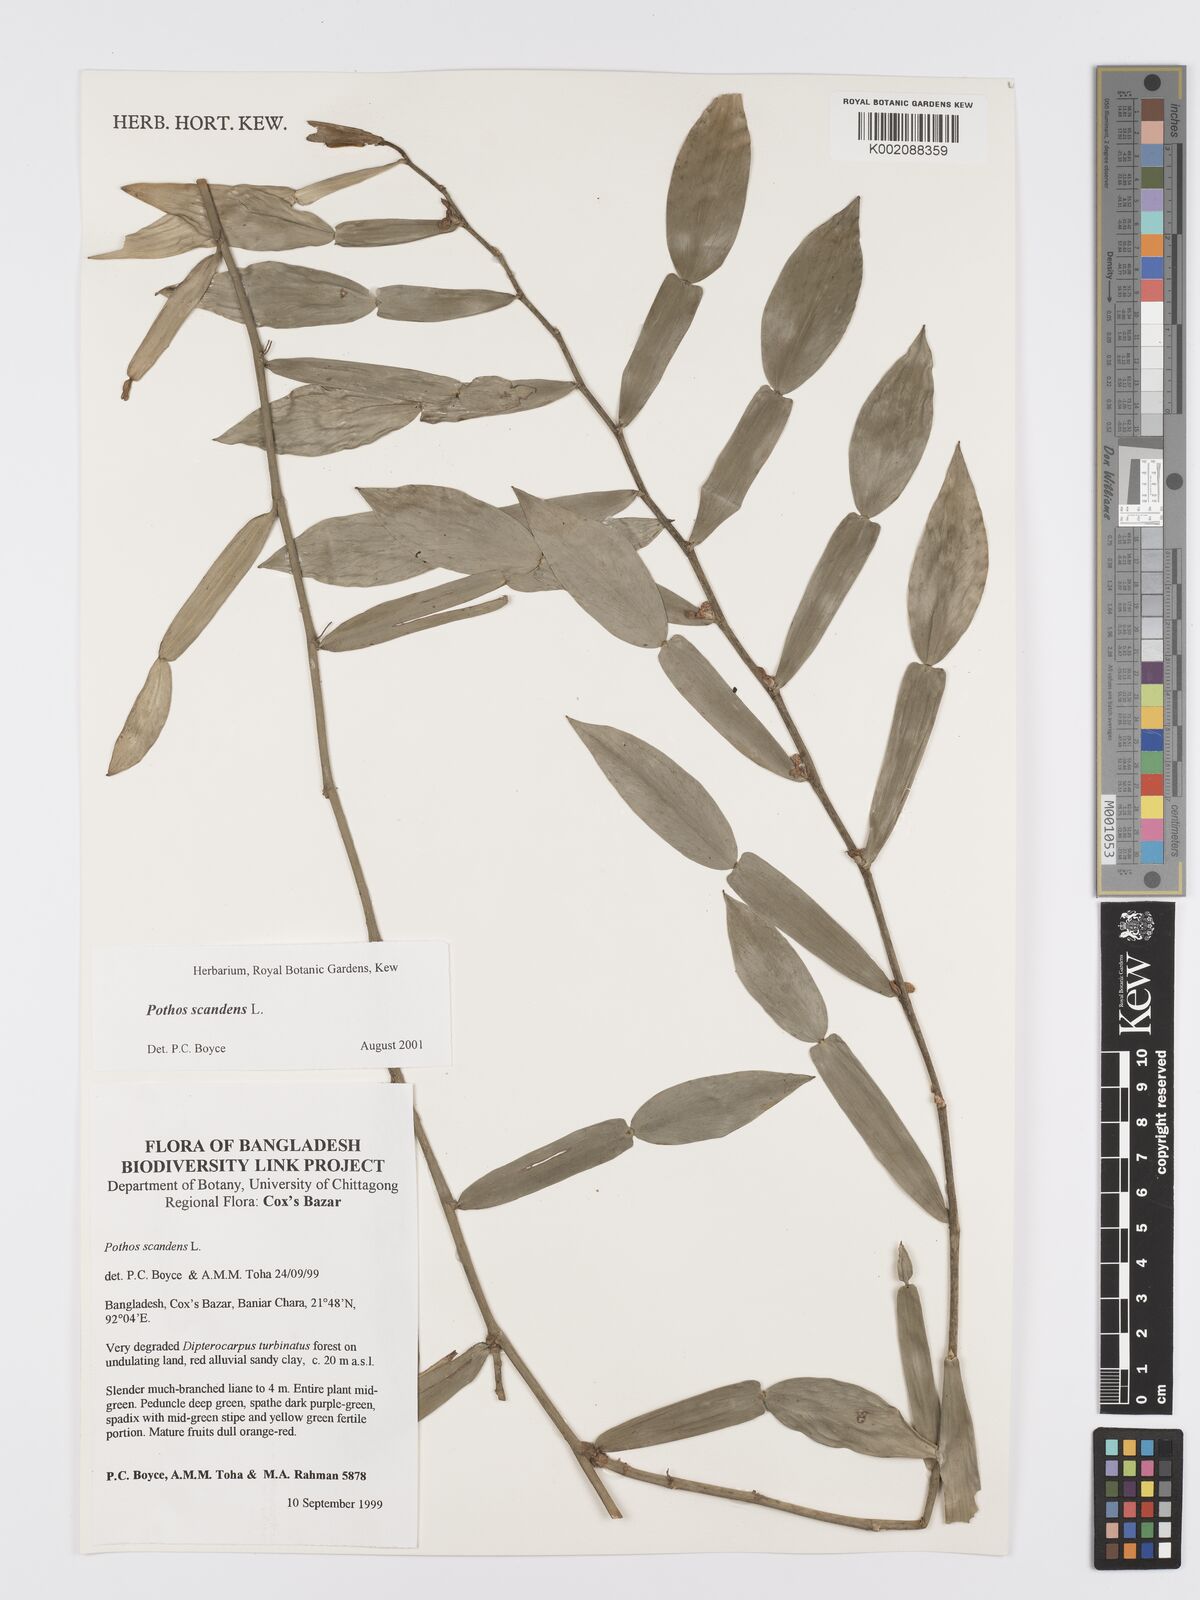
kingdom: Plantae
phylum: Tracheophyta
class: Liliopsida
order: Alismatales
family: Araceae
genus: Pothos
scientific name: Pothos scandens
